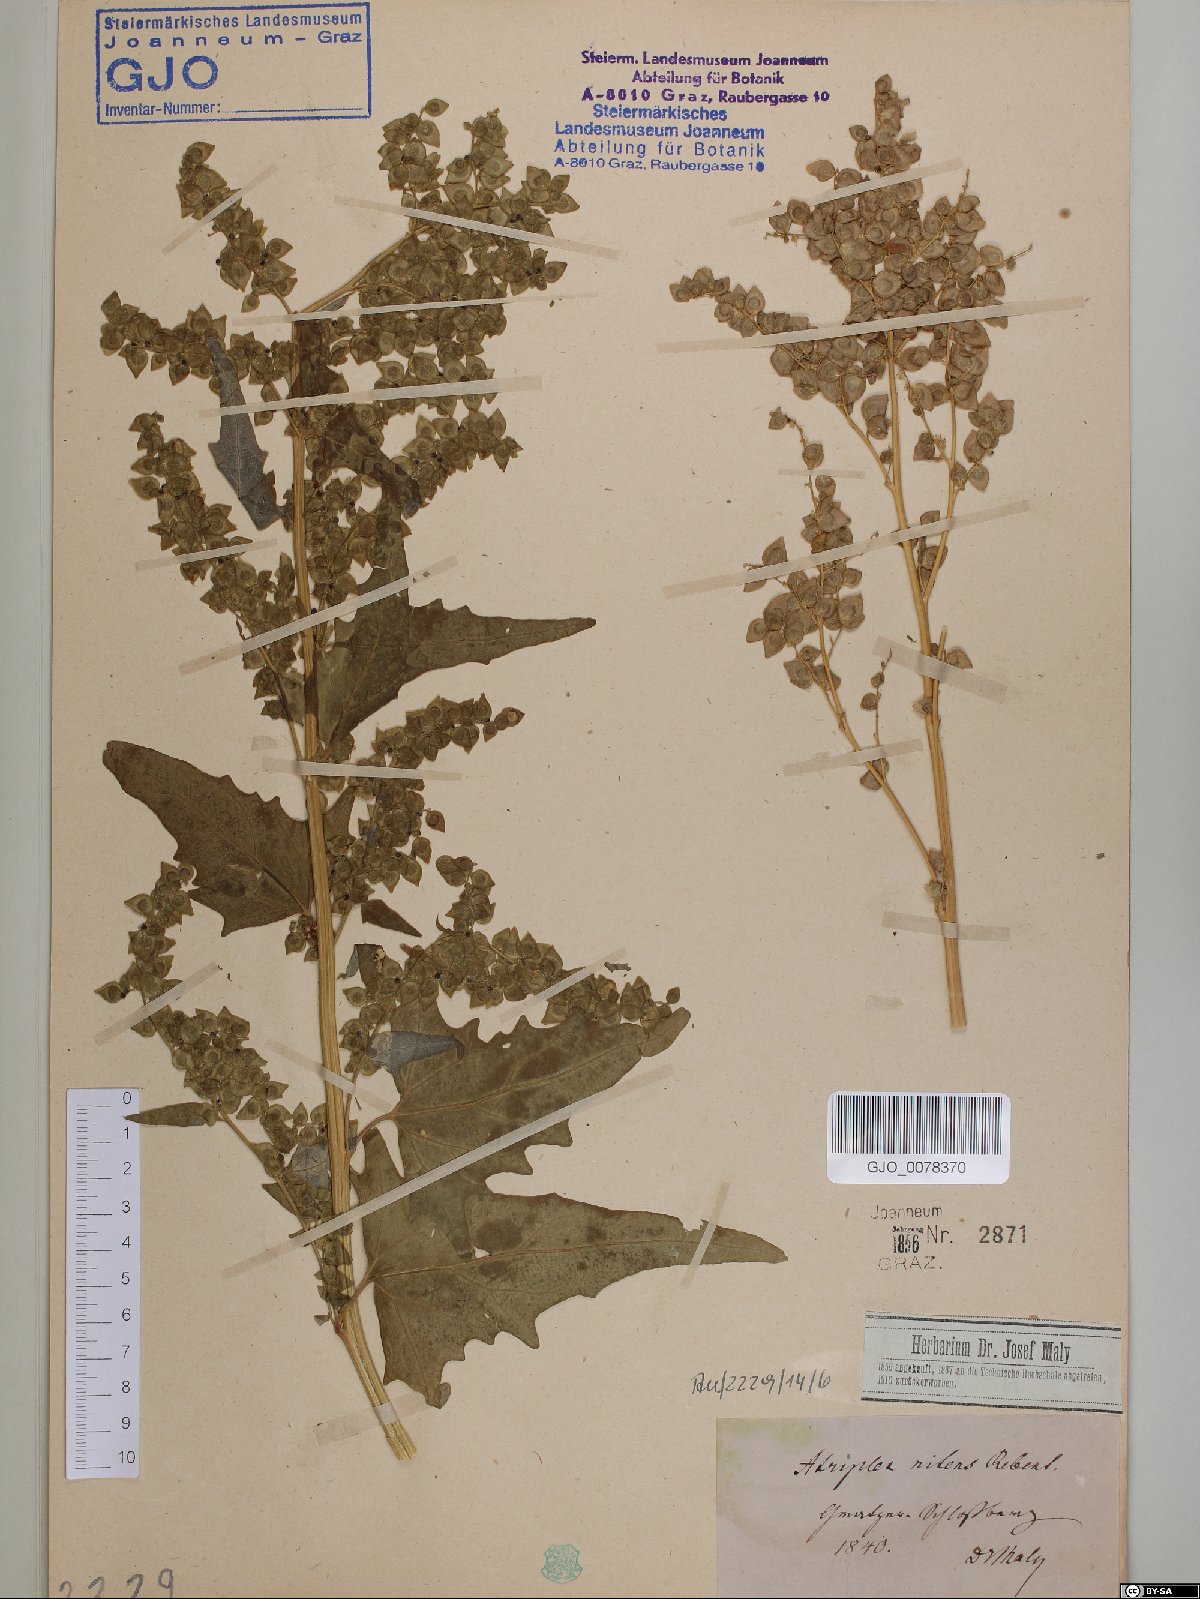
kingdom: Plantae
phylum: Tracheophyta
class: Magnoliopsida
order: Caryophyllales
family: Amaranthaceae
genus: Atriplex
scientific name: Atriplex sagittata
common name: Purple orache
